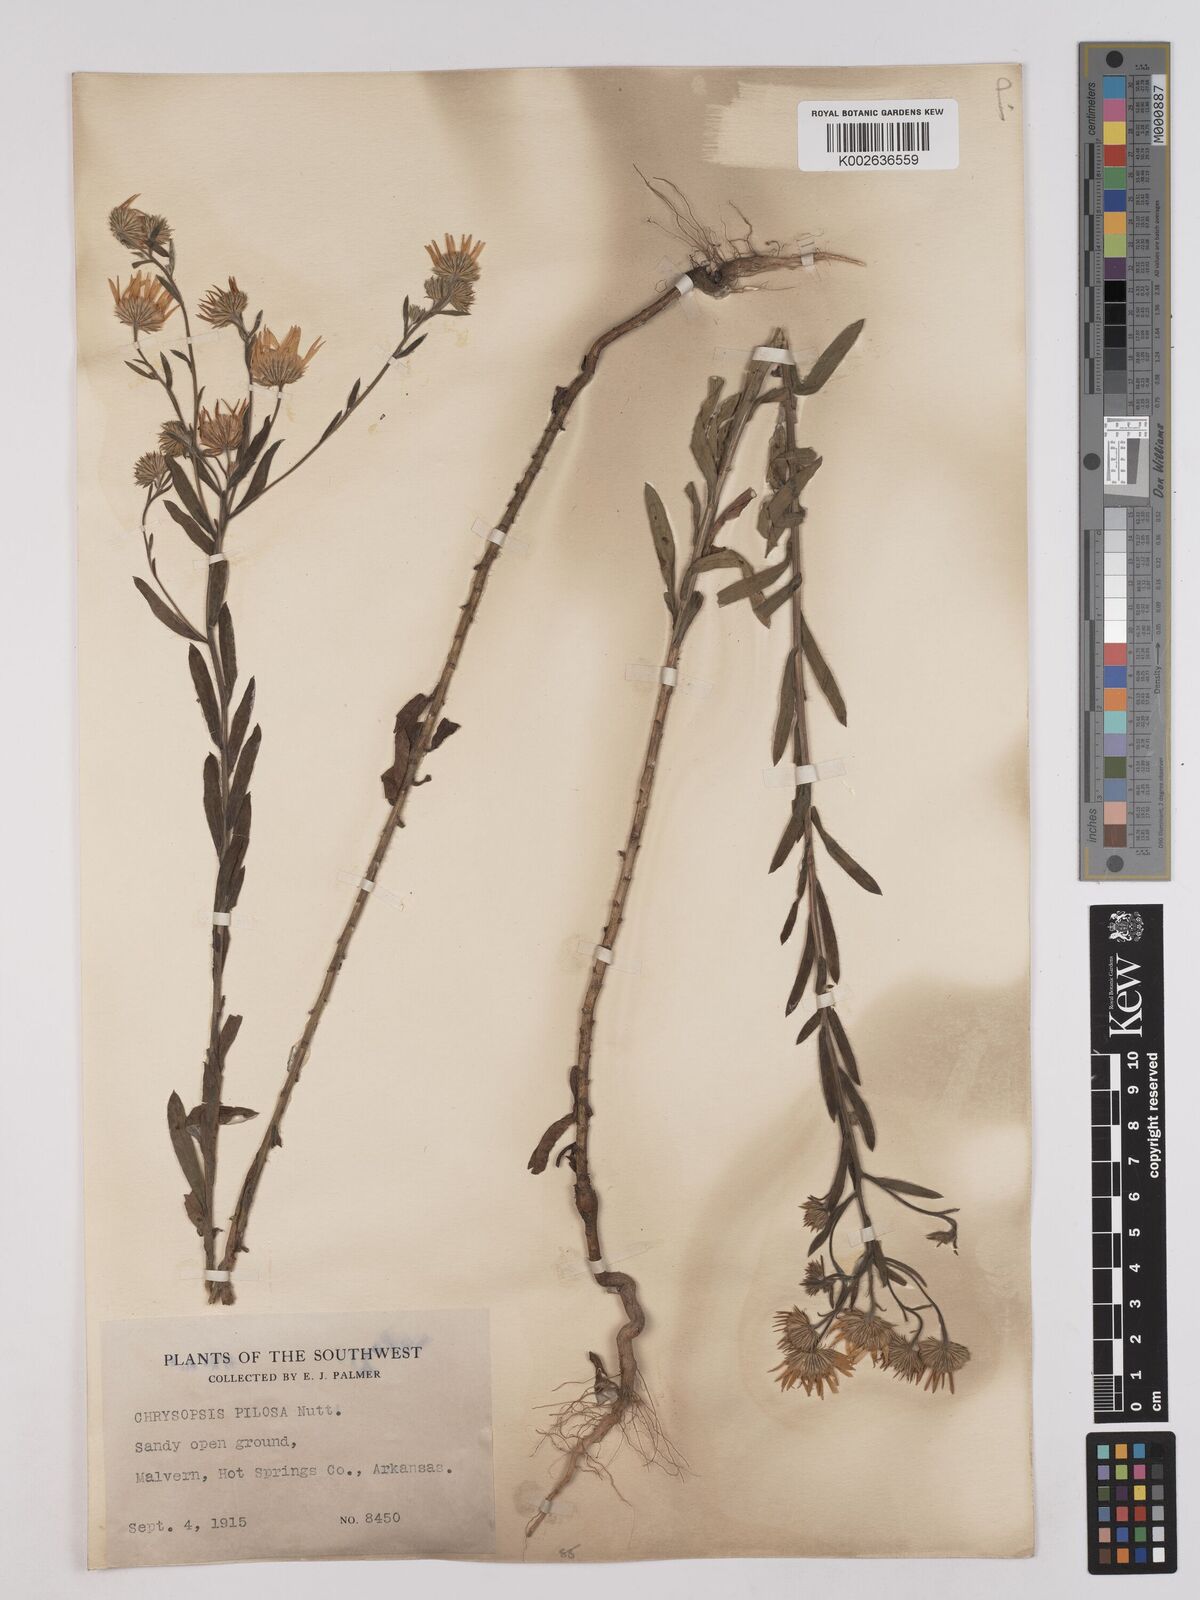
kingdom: Plantae
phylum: Tracheophyta
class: Magnoliopsida
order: Asterales
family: Asteraceae
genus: Bradburia
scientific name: Bradburia pilosa
